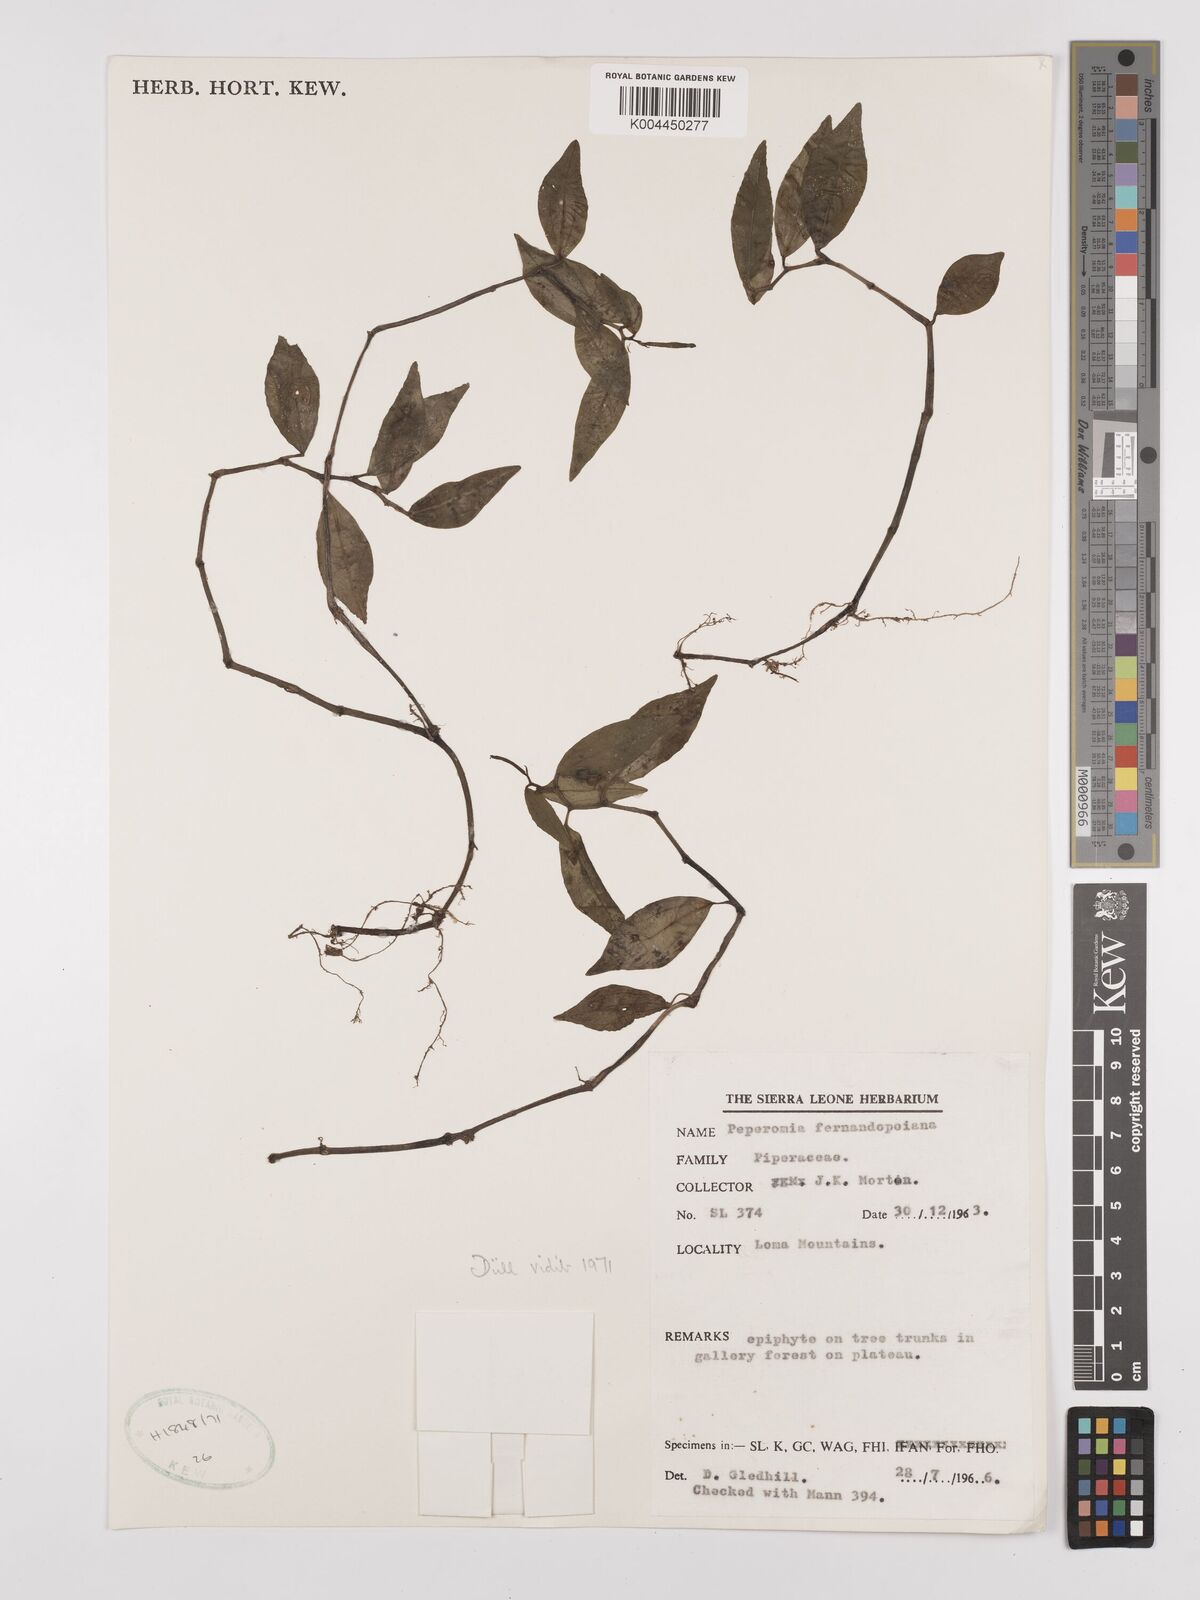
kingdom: Plantae
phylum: Tracheophyta
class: Magnoliopsida
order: Piperales
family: Piperaceae
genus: Peperomia
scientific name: Peperomia fernandeziana
